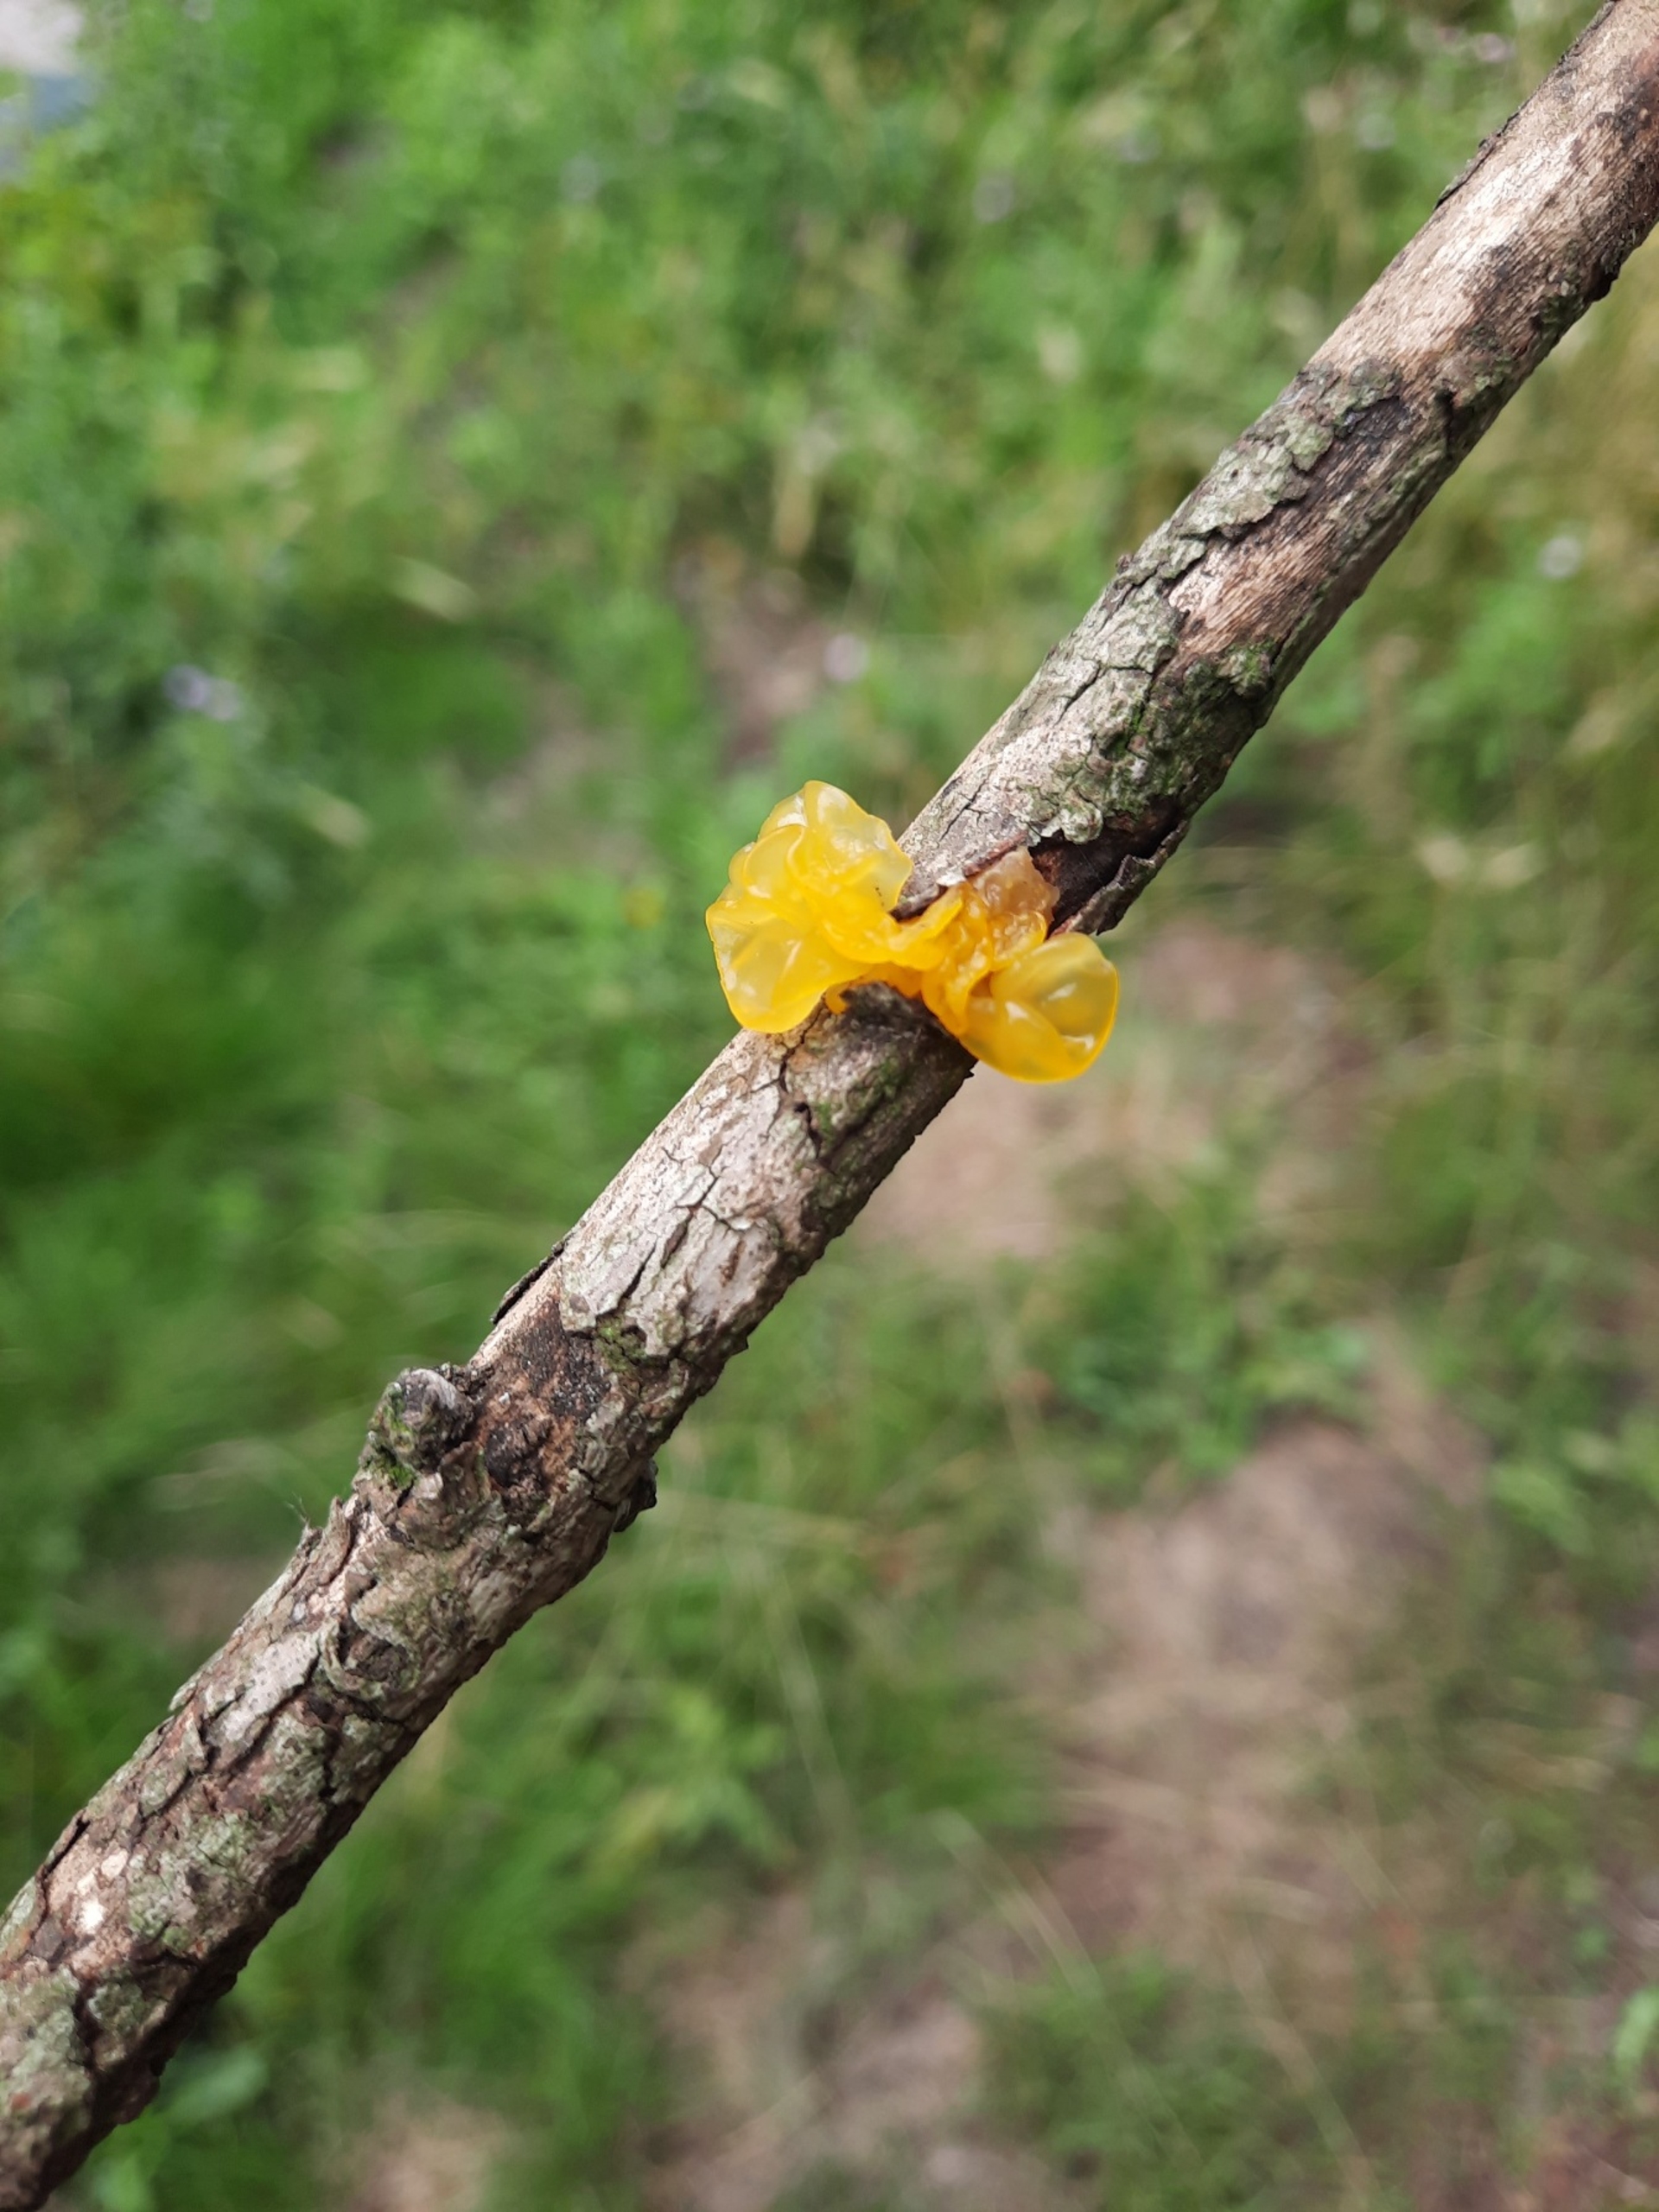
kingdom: Fungi
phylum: Basidiomycota
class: Tremellomycetes
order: Tremellales
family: Tremellaceae
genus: Tremella
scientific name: Tremella mesenterica
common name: Gul bævresvamp
